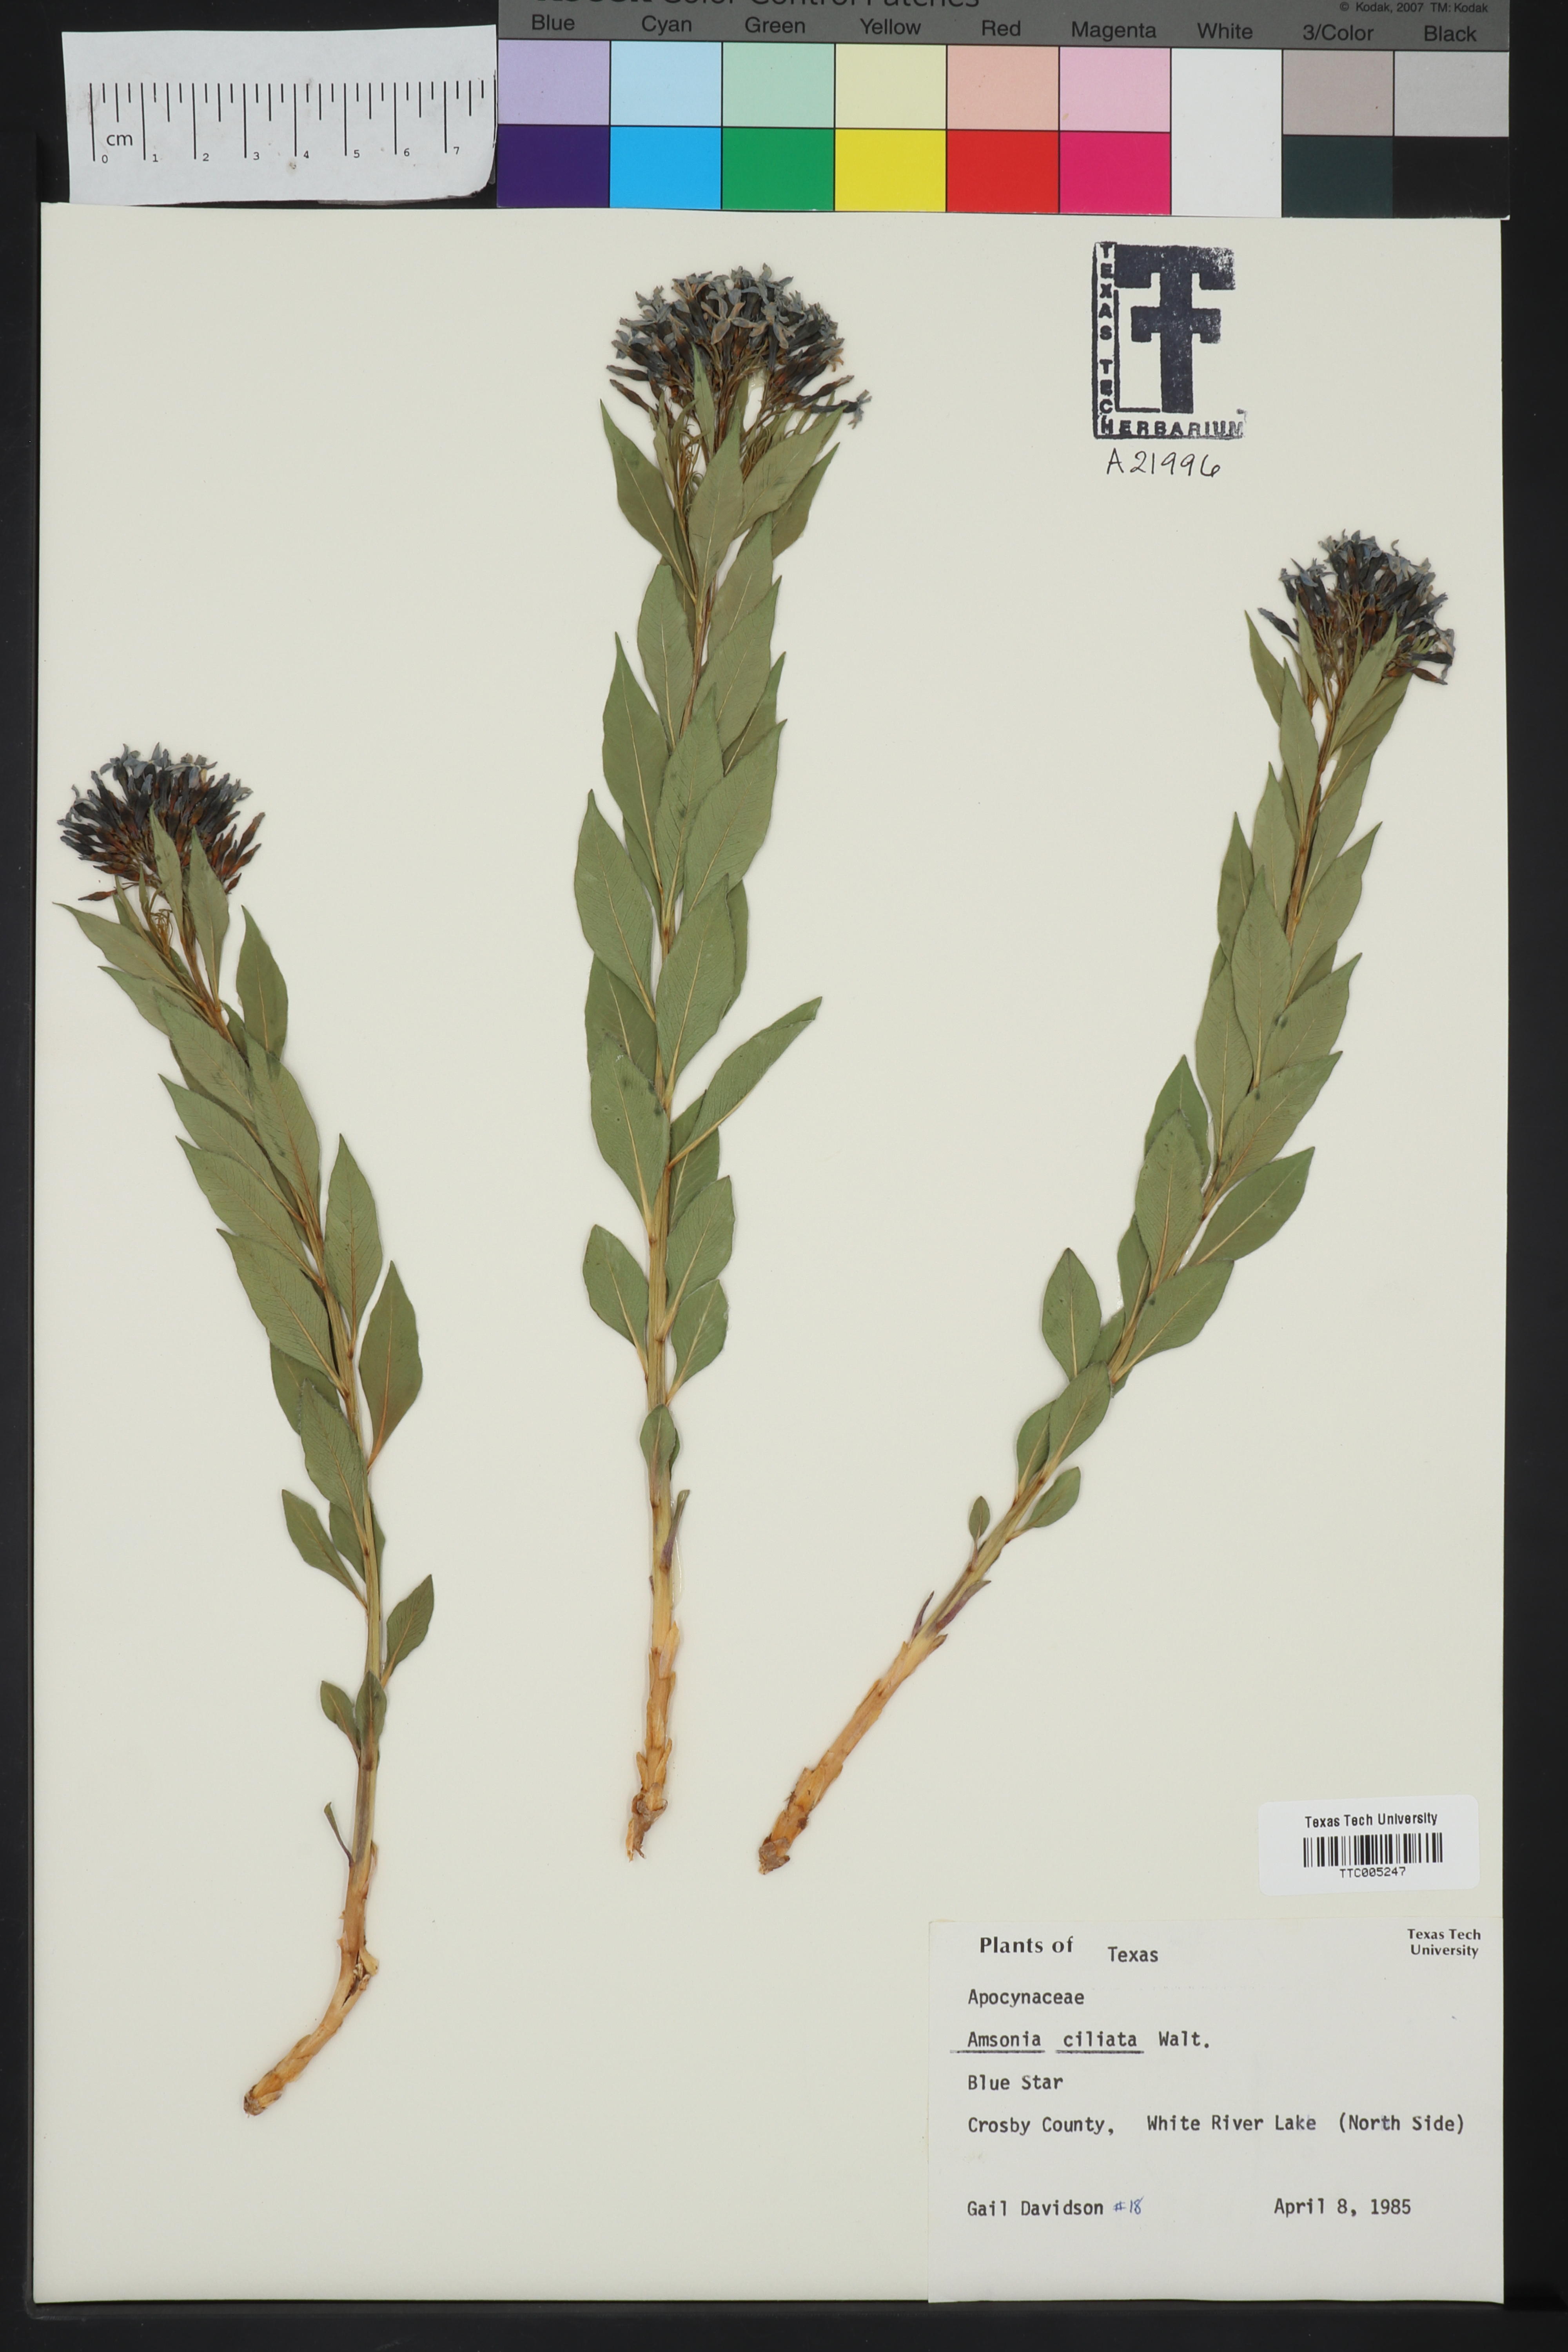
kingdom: Plantae
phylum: Tracheophyta
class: Magnoliopsida
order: Gentianales
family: Apocynaceae
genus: Amsonia
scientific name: Amsonia ciliata
